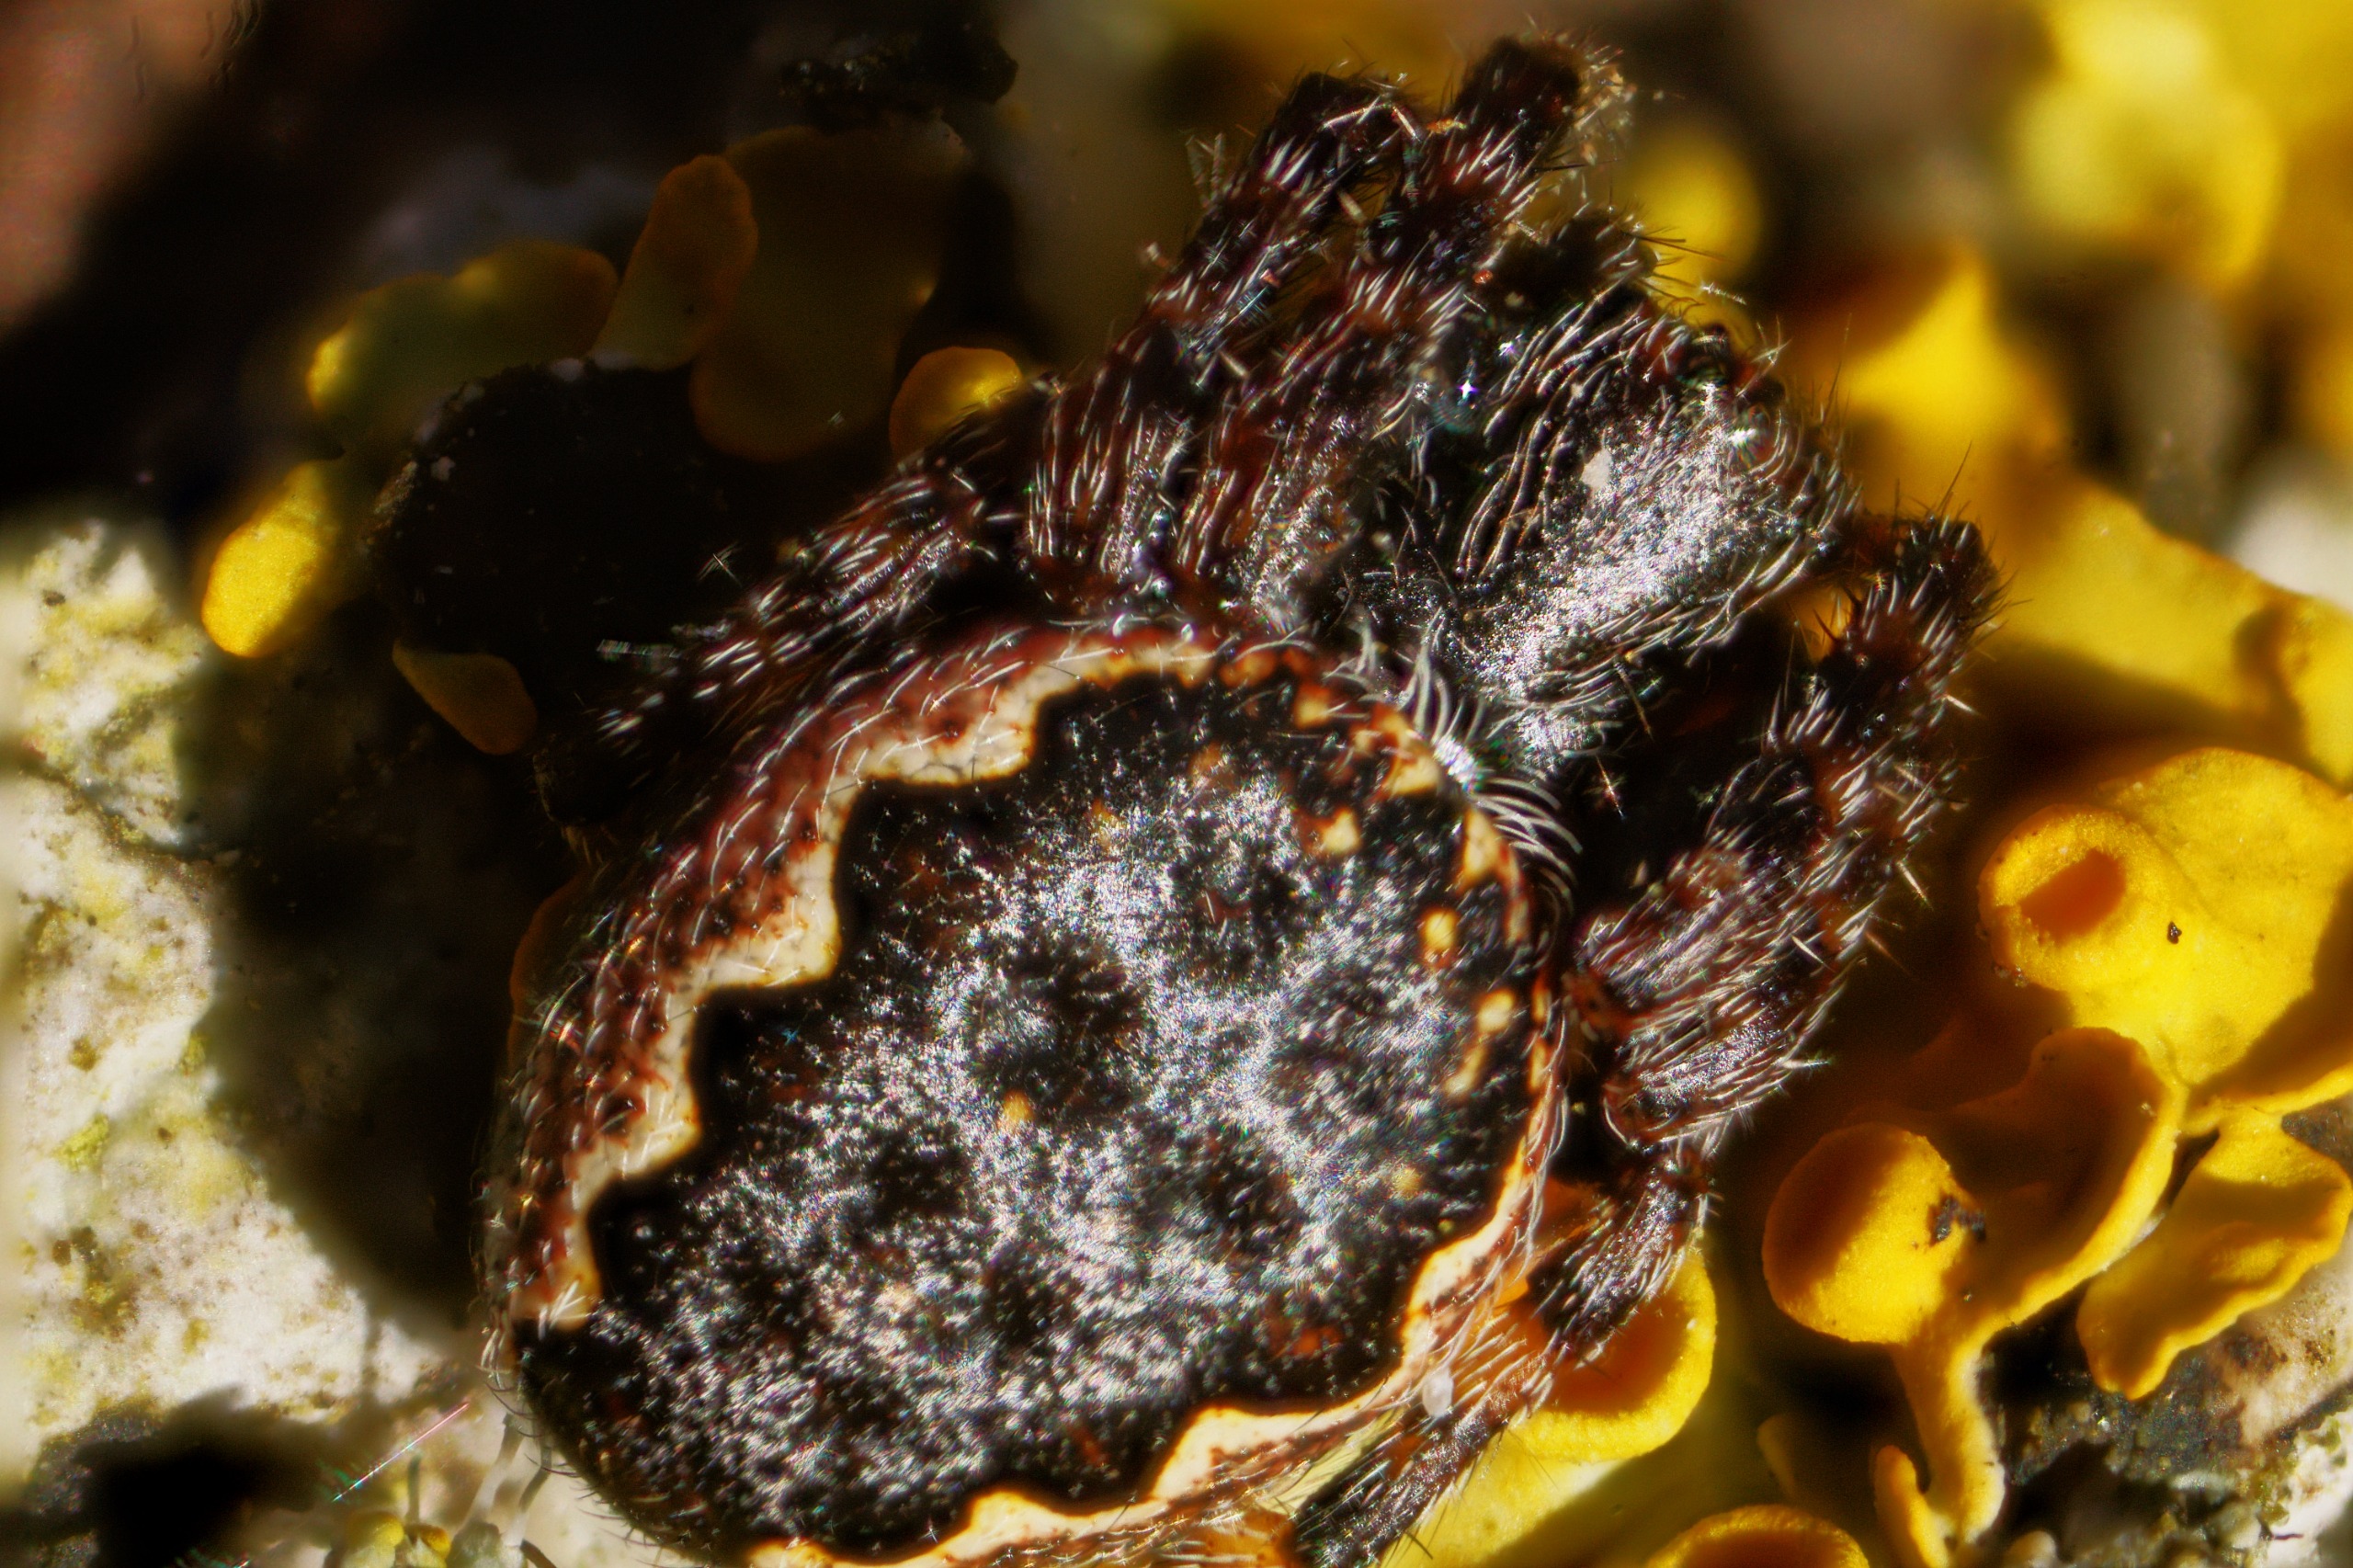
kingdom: Animalia
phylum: Arthropoda
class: Arachnida
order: Araneae
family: Araneidae
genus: Nuctenea
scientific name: Nuctenea umbratica
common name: Flad hjulspinder
